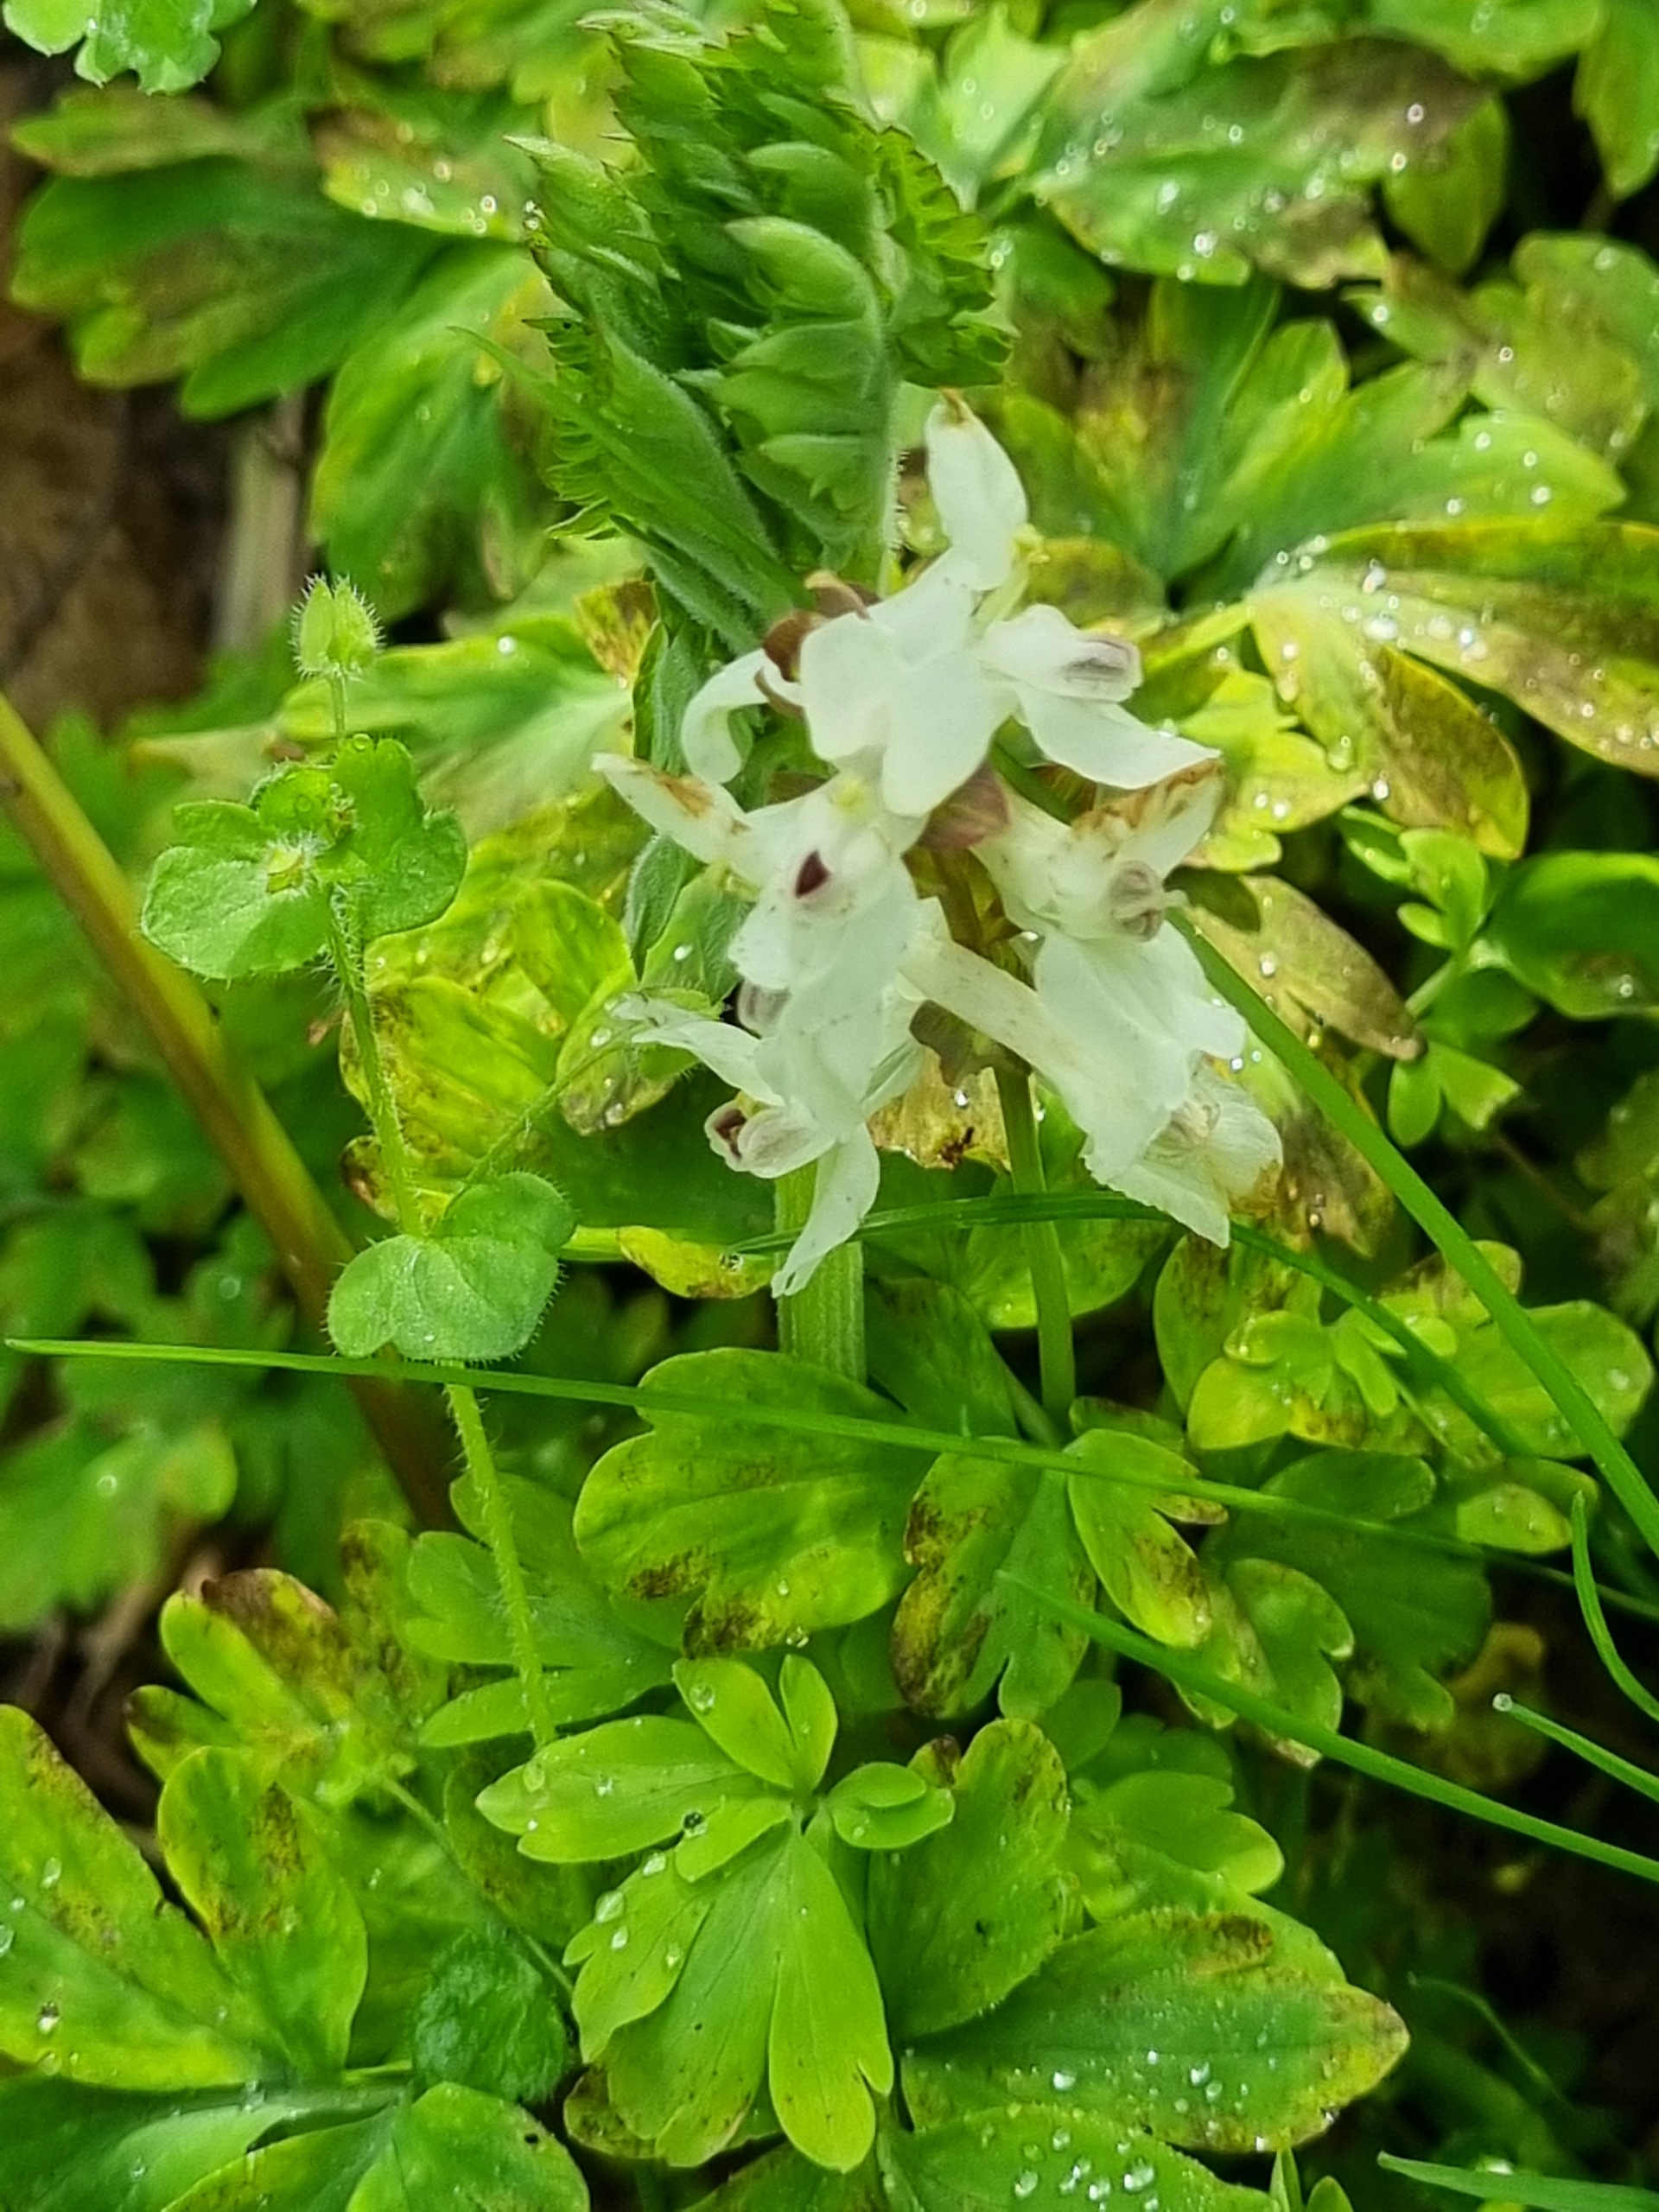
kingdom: Plantae
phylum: Tracheophyta
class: Magnoliopsida
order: Ranunculales
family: Papaveraceae
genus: Corydalis
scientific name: Corydalis cava
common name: Hulrodet lærkespore
